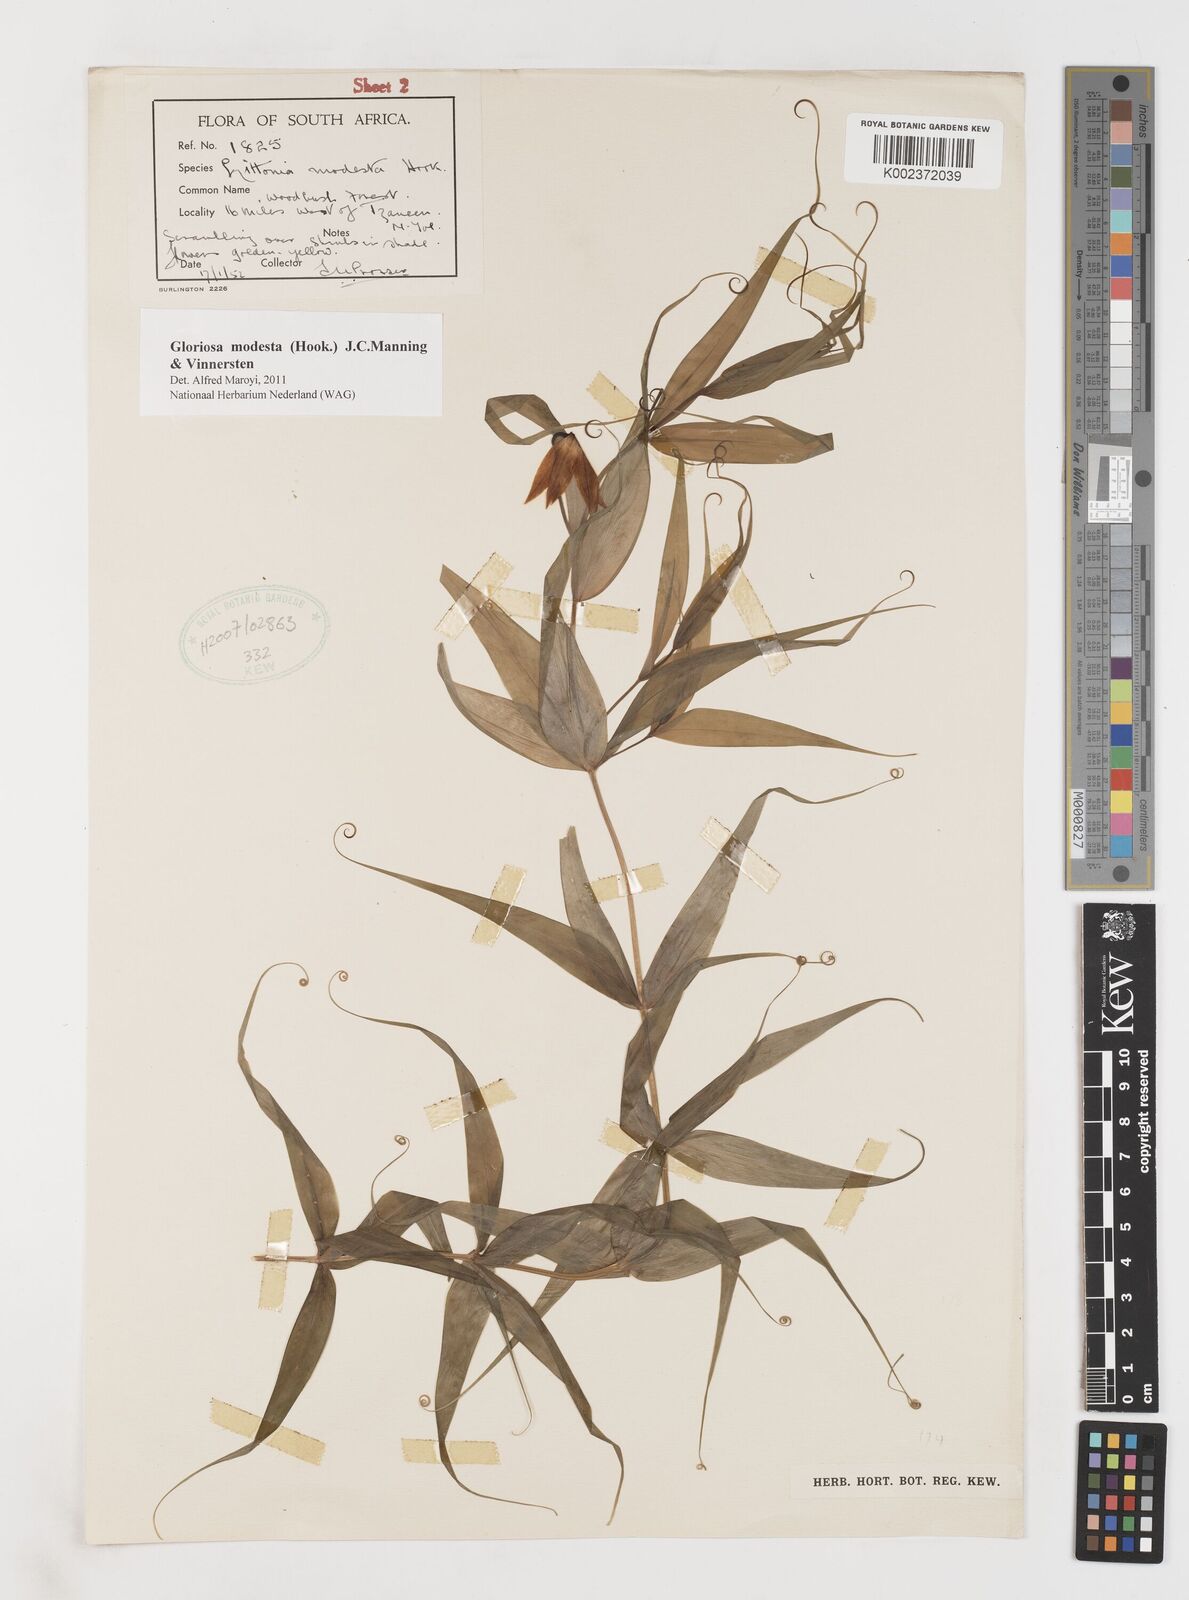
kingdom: Plantae
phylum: Tracheophyta
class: Liliopsida
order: Liliales
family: Colchicaceae
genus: Gloriosa
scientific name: Gloriosa modesta
